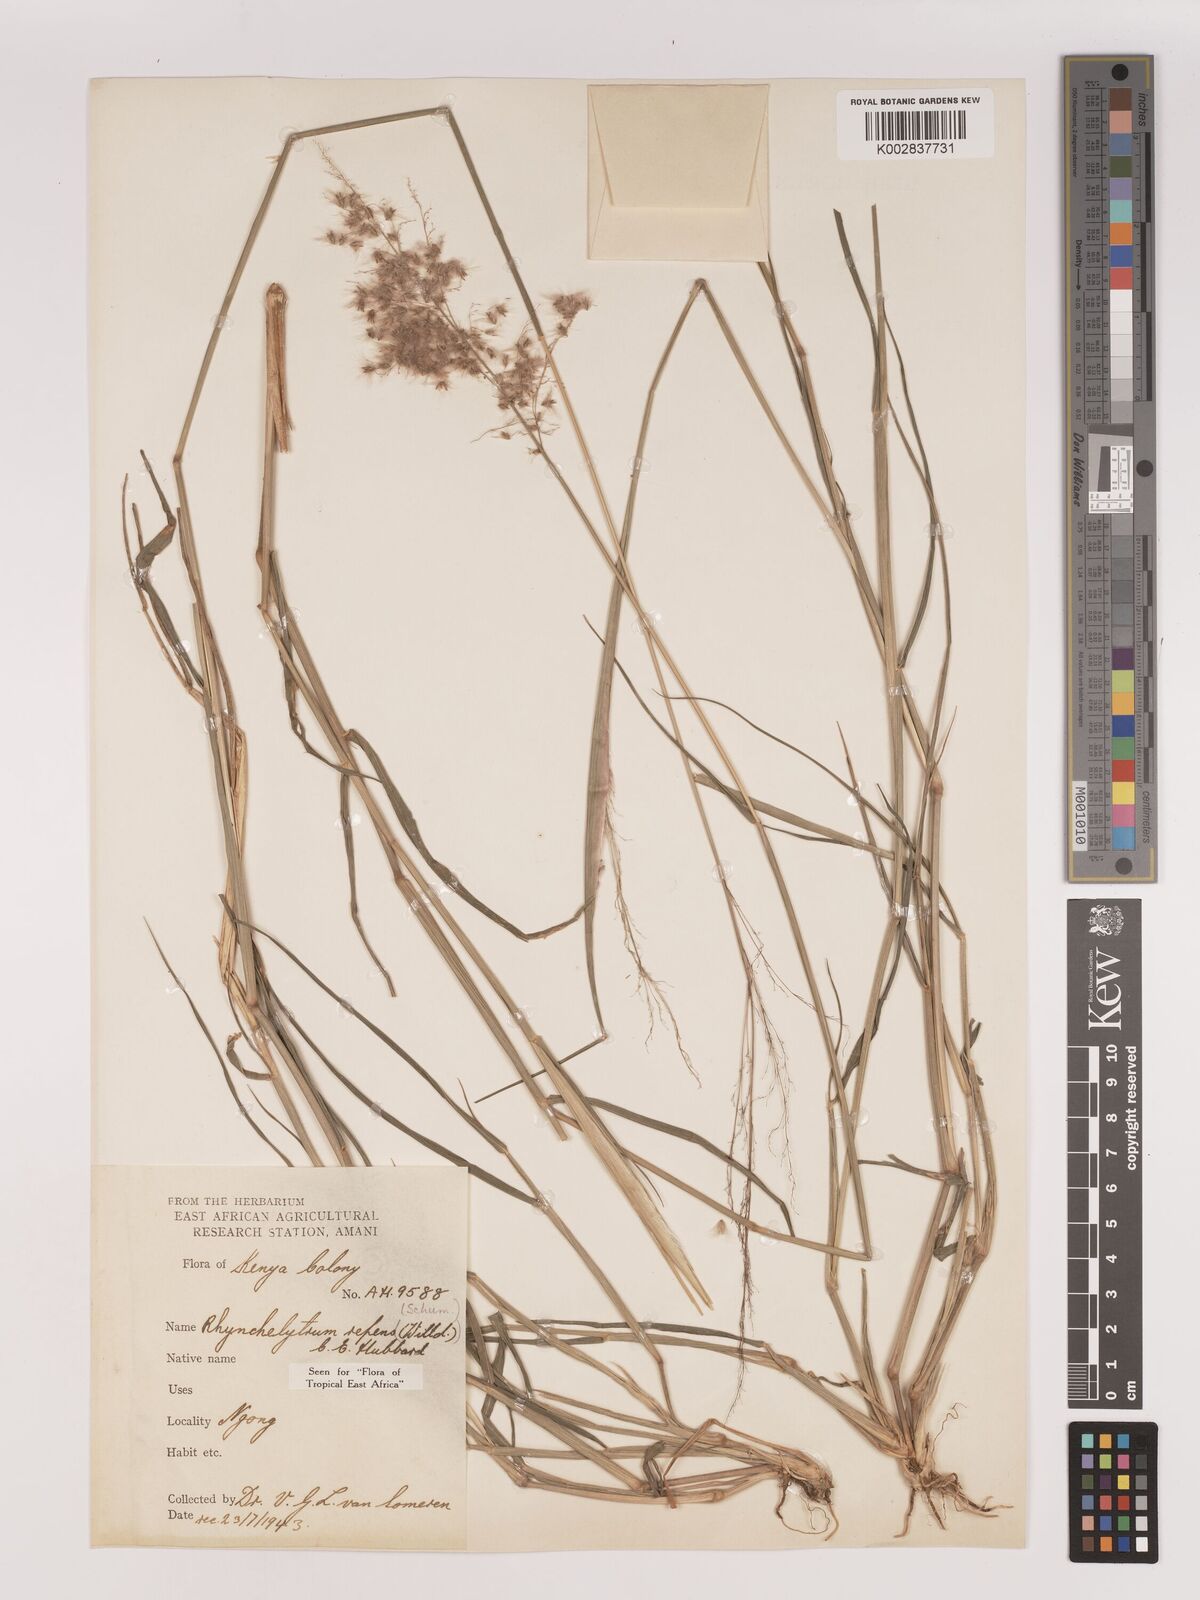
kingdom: Plantae
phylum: Tracheophyta
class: Liliopsida
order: Poales
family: Poaceae
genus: Melinis
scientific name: Melinis repens
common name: Rose natal grass
